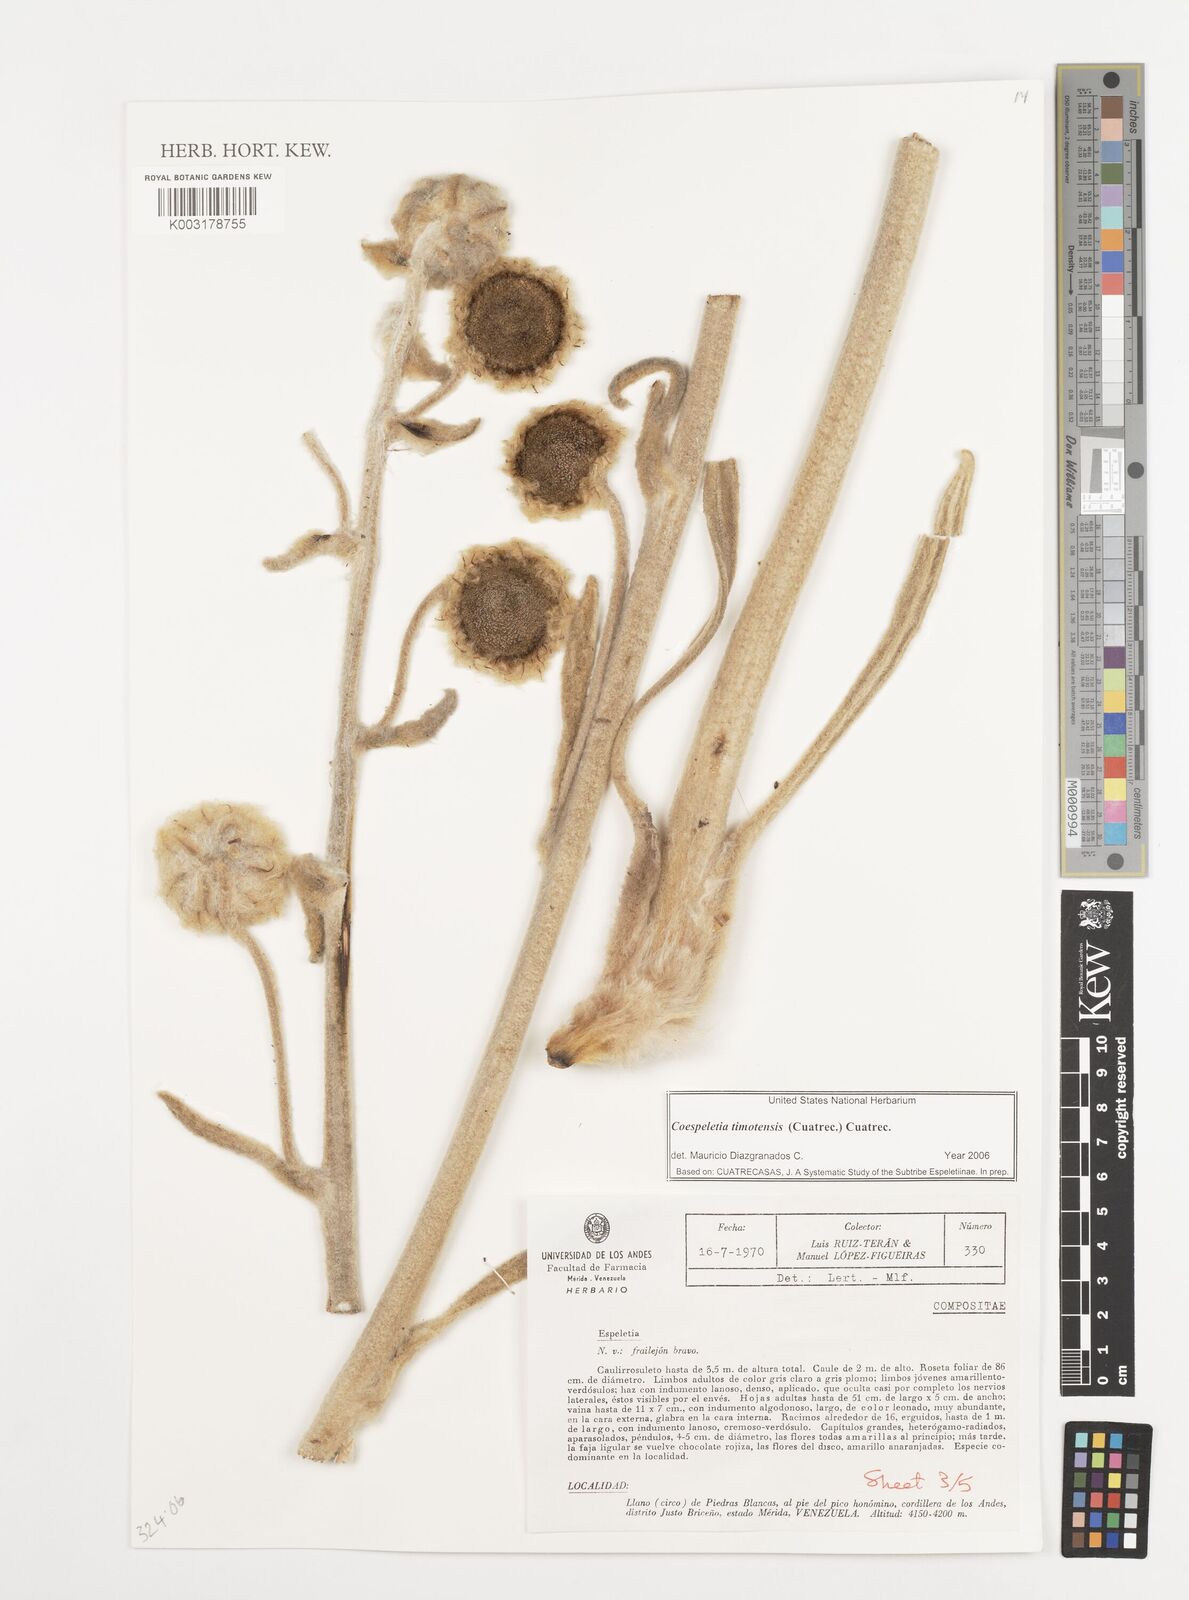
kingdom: Plantae
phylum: Tracheophyta
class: Magnoliopsida
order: Asterales
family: Asteraceae
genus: Espeletia
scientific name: Espeletia timotensis
